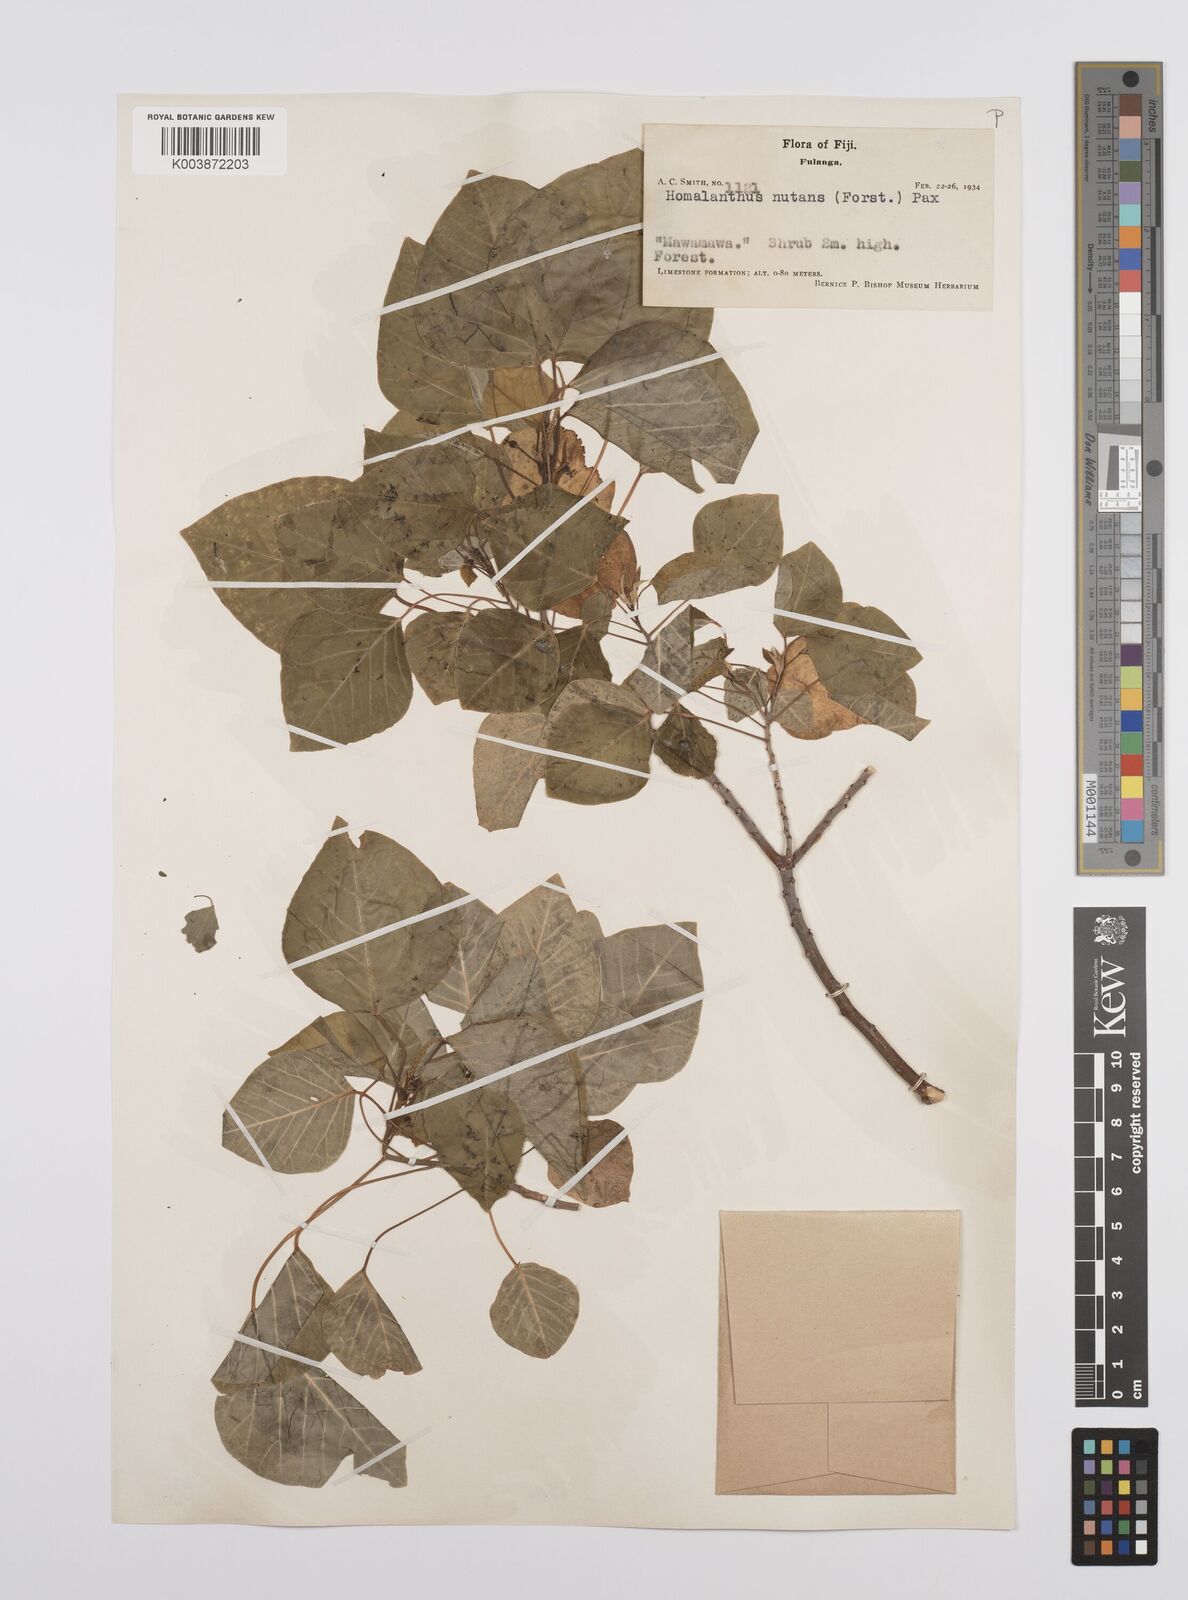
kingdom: Plantae
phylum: Tracheophyta
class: Magnoliopsida
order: Malpighiales
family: Euphorbiaceae
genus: Homalanthus
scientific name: Homalanthus nutans
